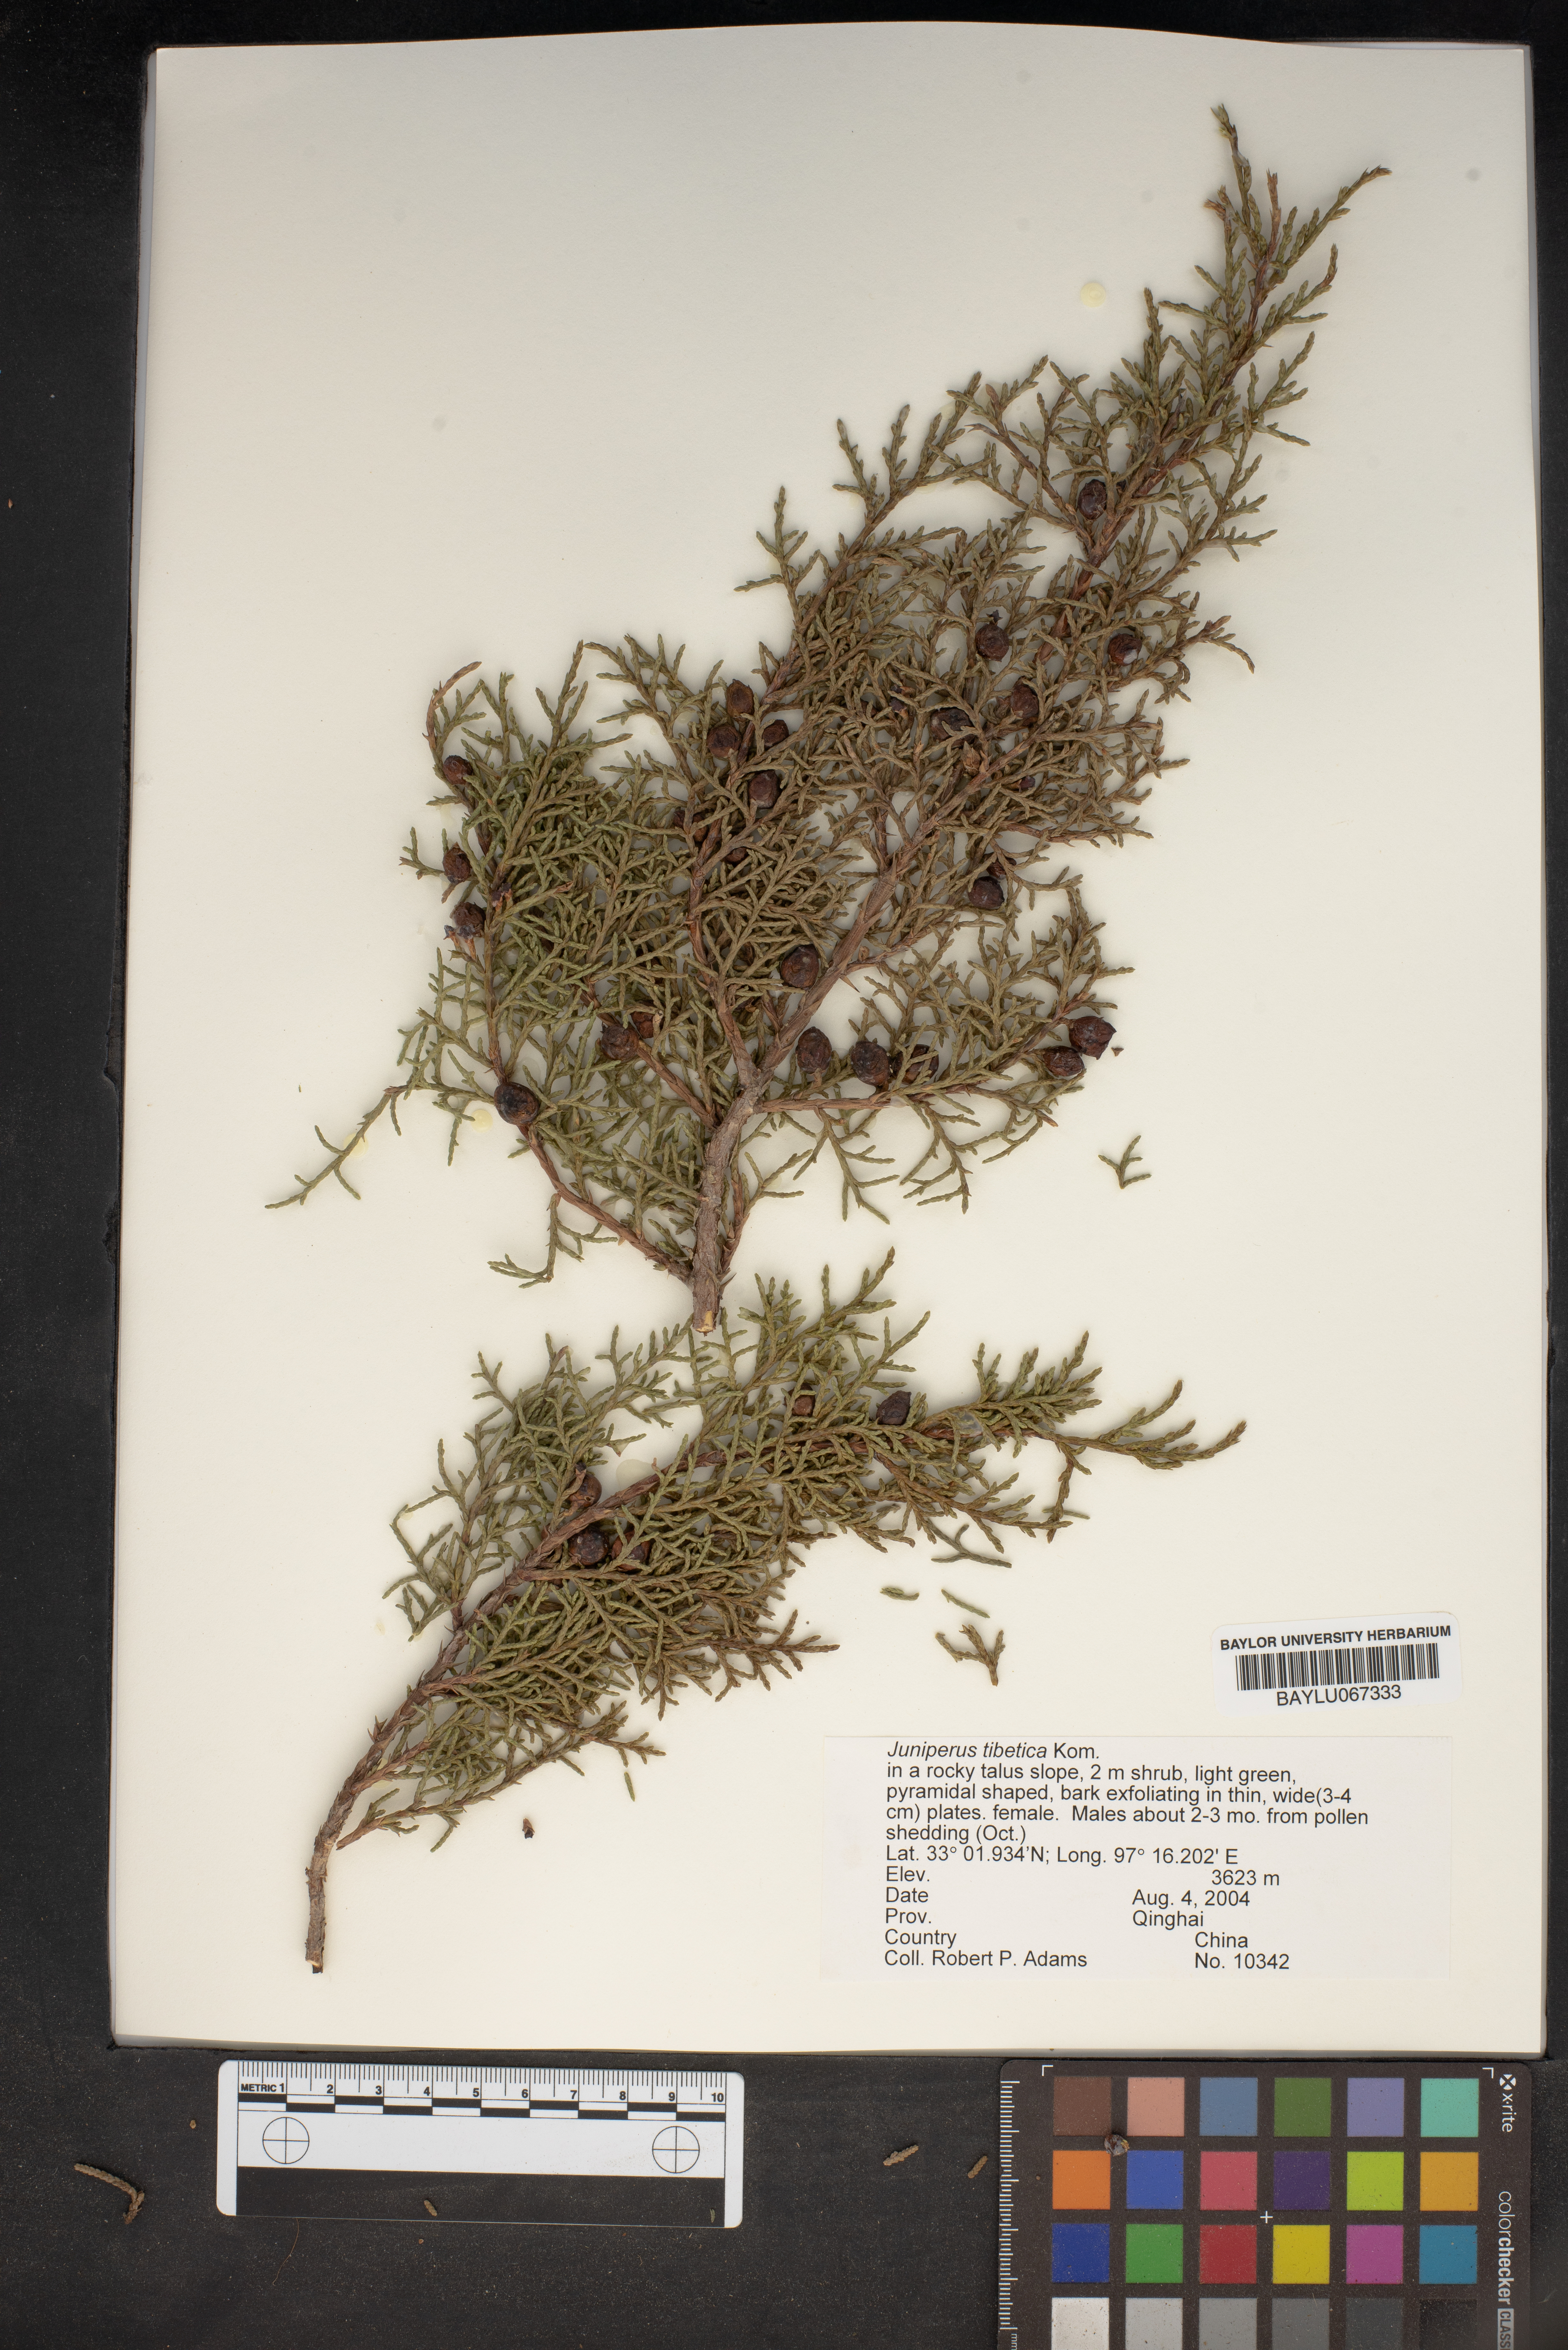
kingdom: Plantae
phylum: Tracheophyta
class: Pinopsida
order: Pinales
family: Cupressaceae
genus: Juniperus
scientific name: Juniperus tibetica
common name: Tibetan juniper
